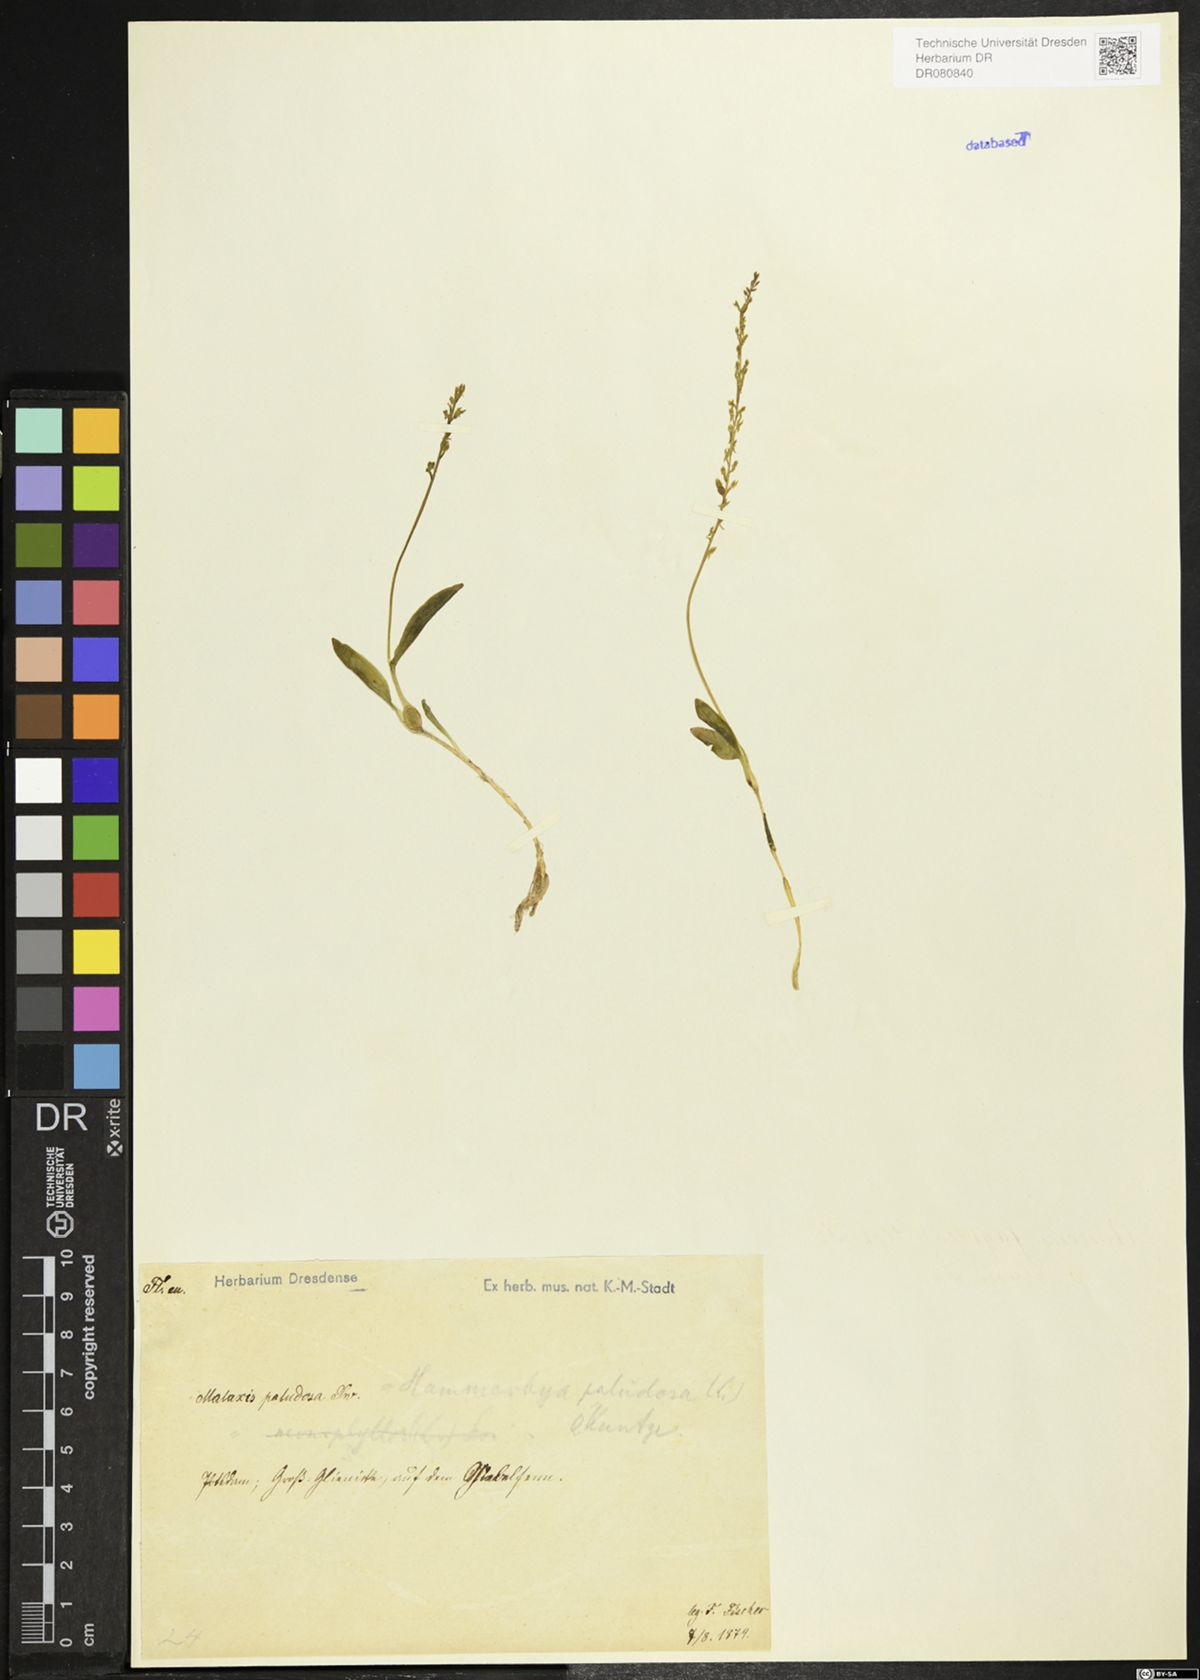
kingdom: Plantae
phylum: Tracheophyta
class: Liliopsida
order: Asparagales
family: Orchidaceae
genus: Hammarbya
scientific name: Hammarbya paludosa
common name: Bog orchid
